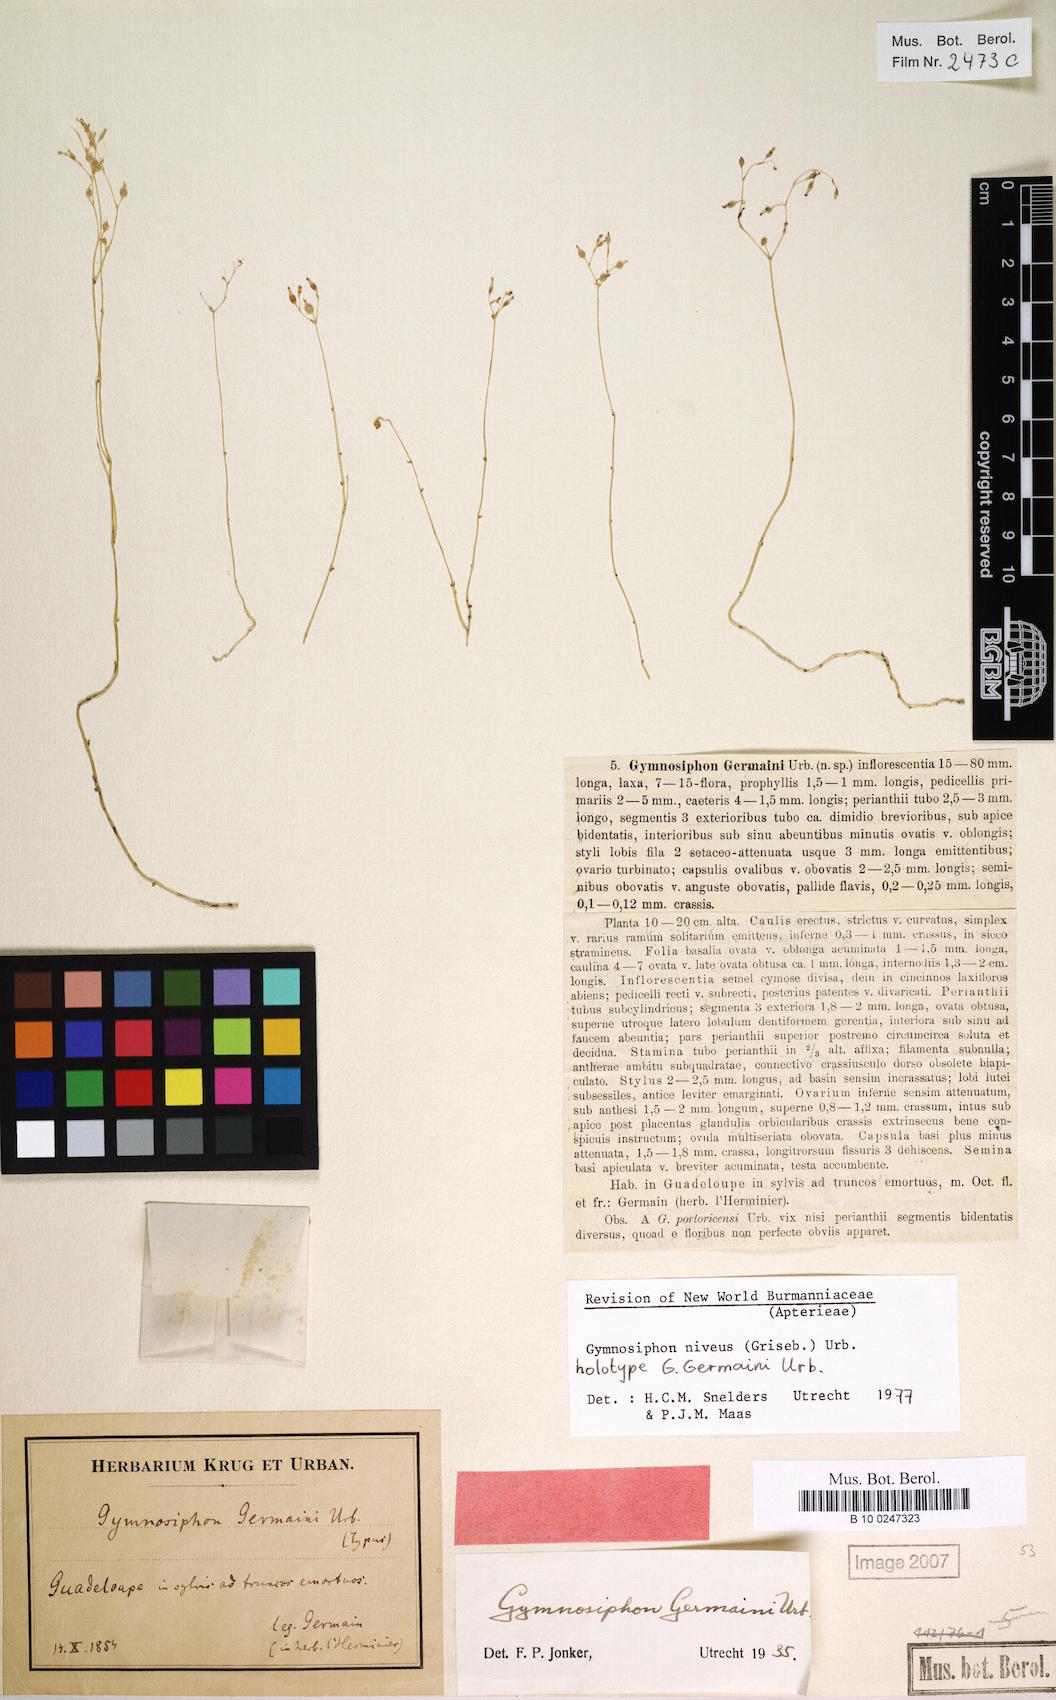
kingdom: Plantae
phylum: Tracheophyta
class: Liliopsida
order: Dioscoreales
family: Burmanniaceae
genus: Gymnosiphon
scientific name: Gymnosiphon niveus
